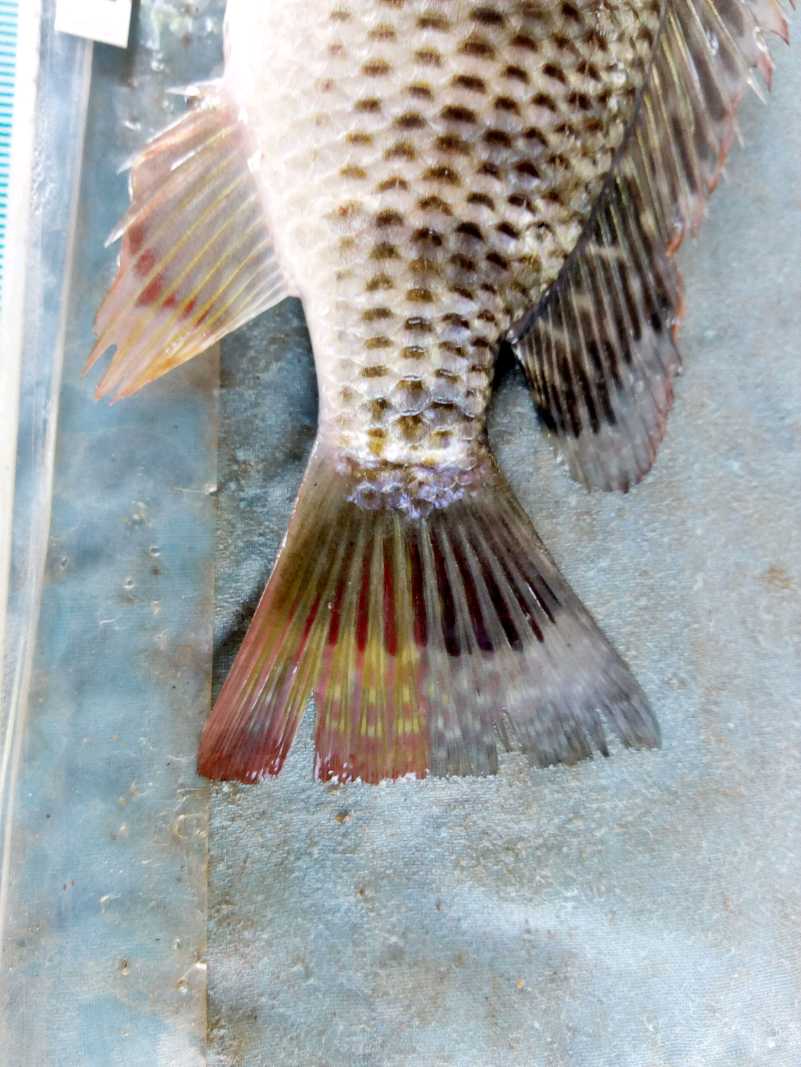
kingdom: Animalia
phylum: Chordata
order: Perciformes
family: Cichlidae
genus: Coptodon
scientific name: Coptodon rendalli
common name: Redbreast tilapia
